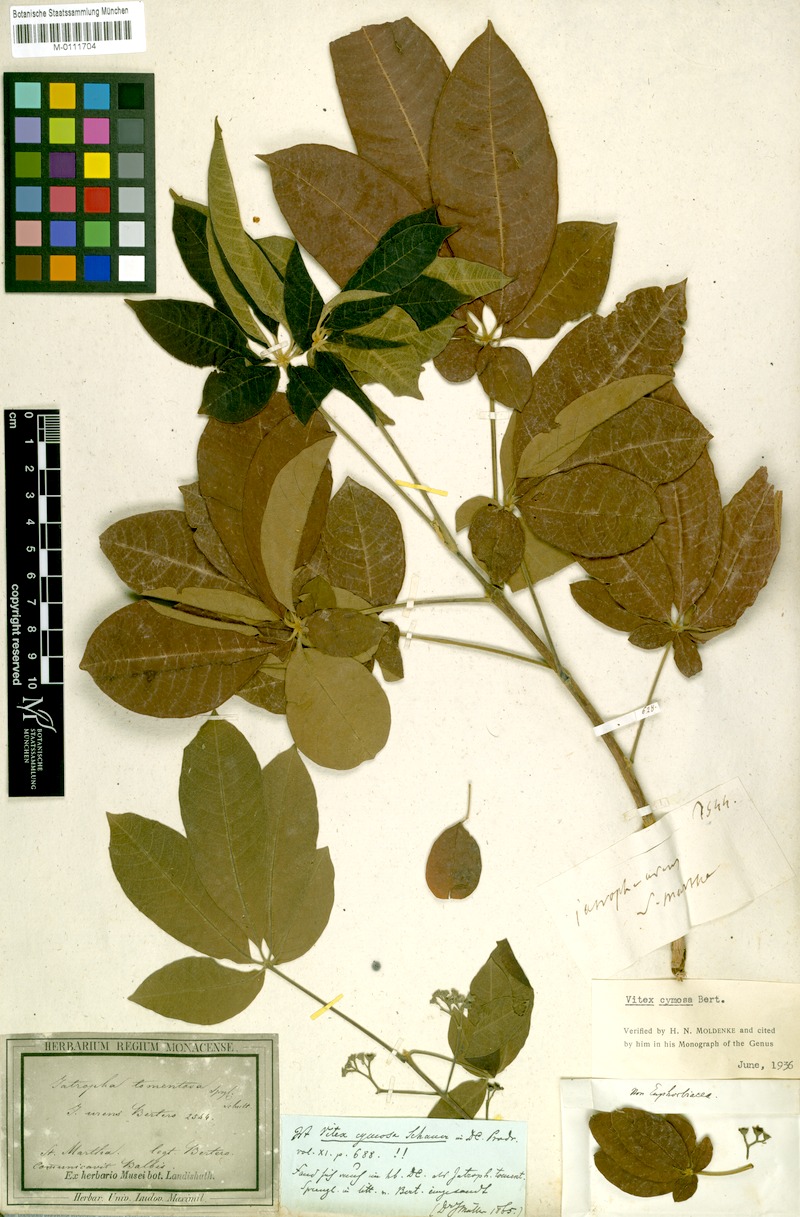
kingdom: Plantae
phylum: Tracheophyta
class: Magnoliopsida
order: Lamiales
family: Lamiaceae
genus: Vitex
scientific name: Vitex cymosa
